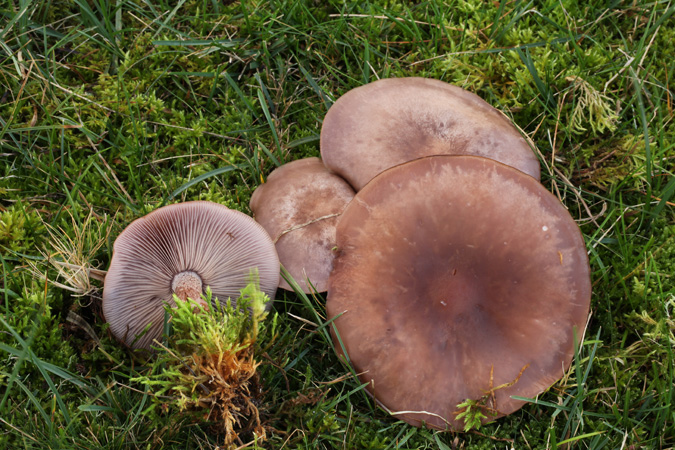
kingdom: Fungi
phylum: Basidiomycota
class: Agaricomycetes
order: Agaricales
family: Tricholomataceae
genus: Lepista
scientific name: Lepista nuda
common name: violet hekseringshat
